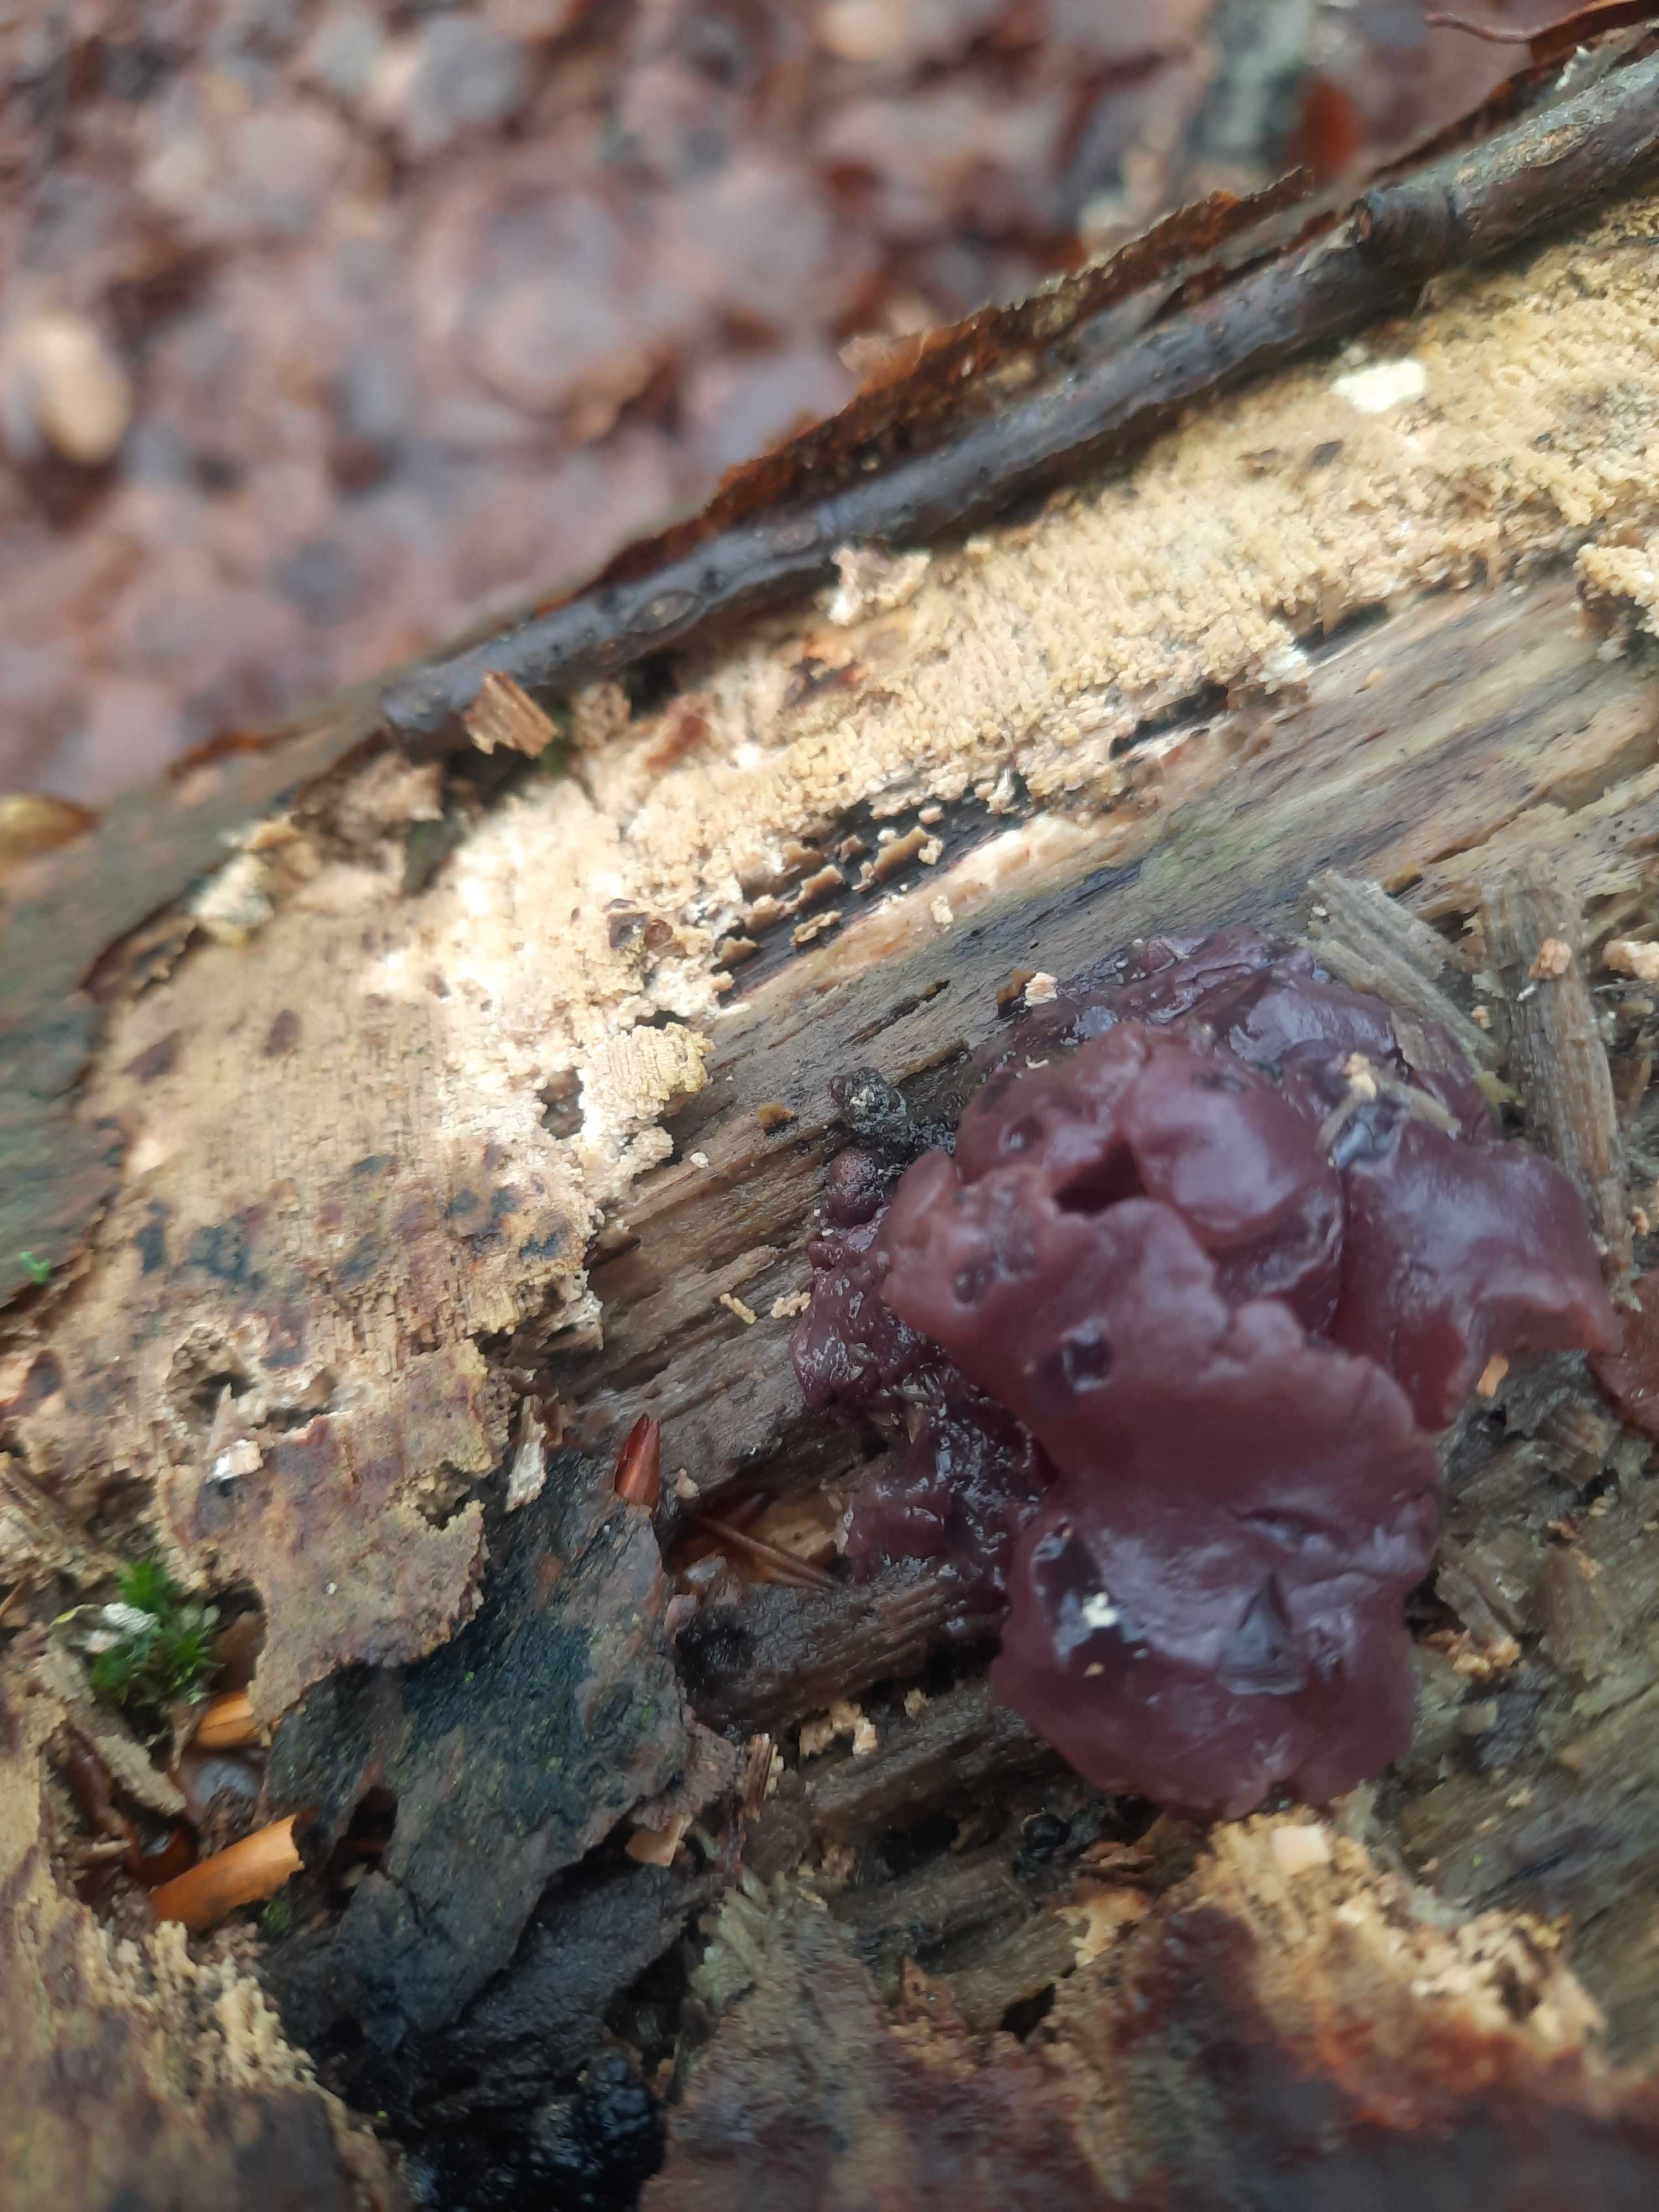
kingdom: Fungi
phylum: Ascomycota
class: Leotiomycetes
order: Helotiales
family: Gelatinodiscaceae
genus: Ascocoryne
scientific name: Ascocoryne sarcoides
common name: rødlilla sejskive
